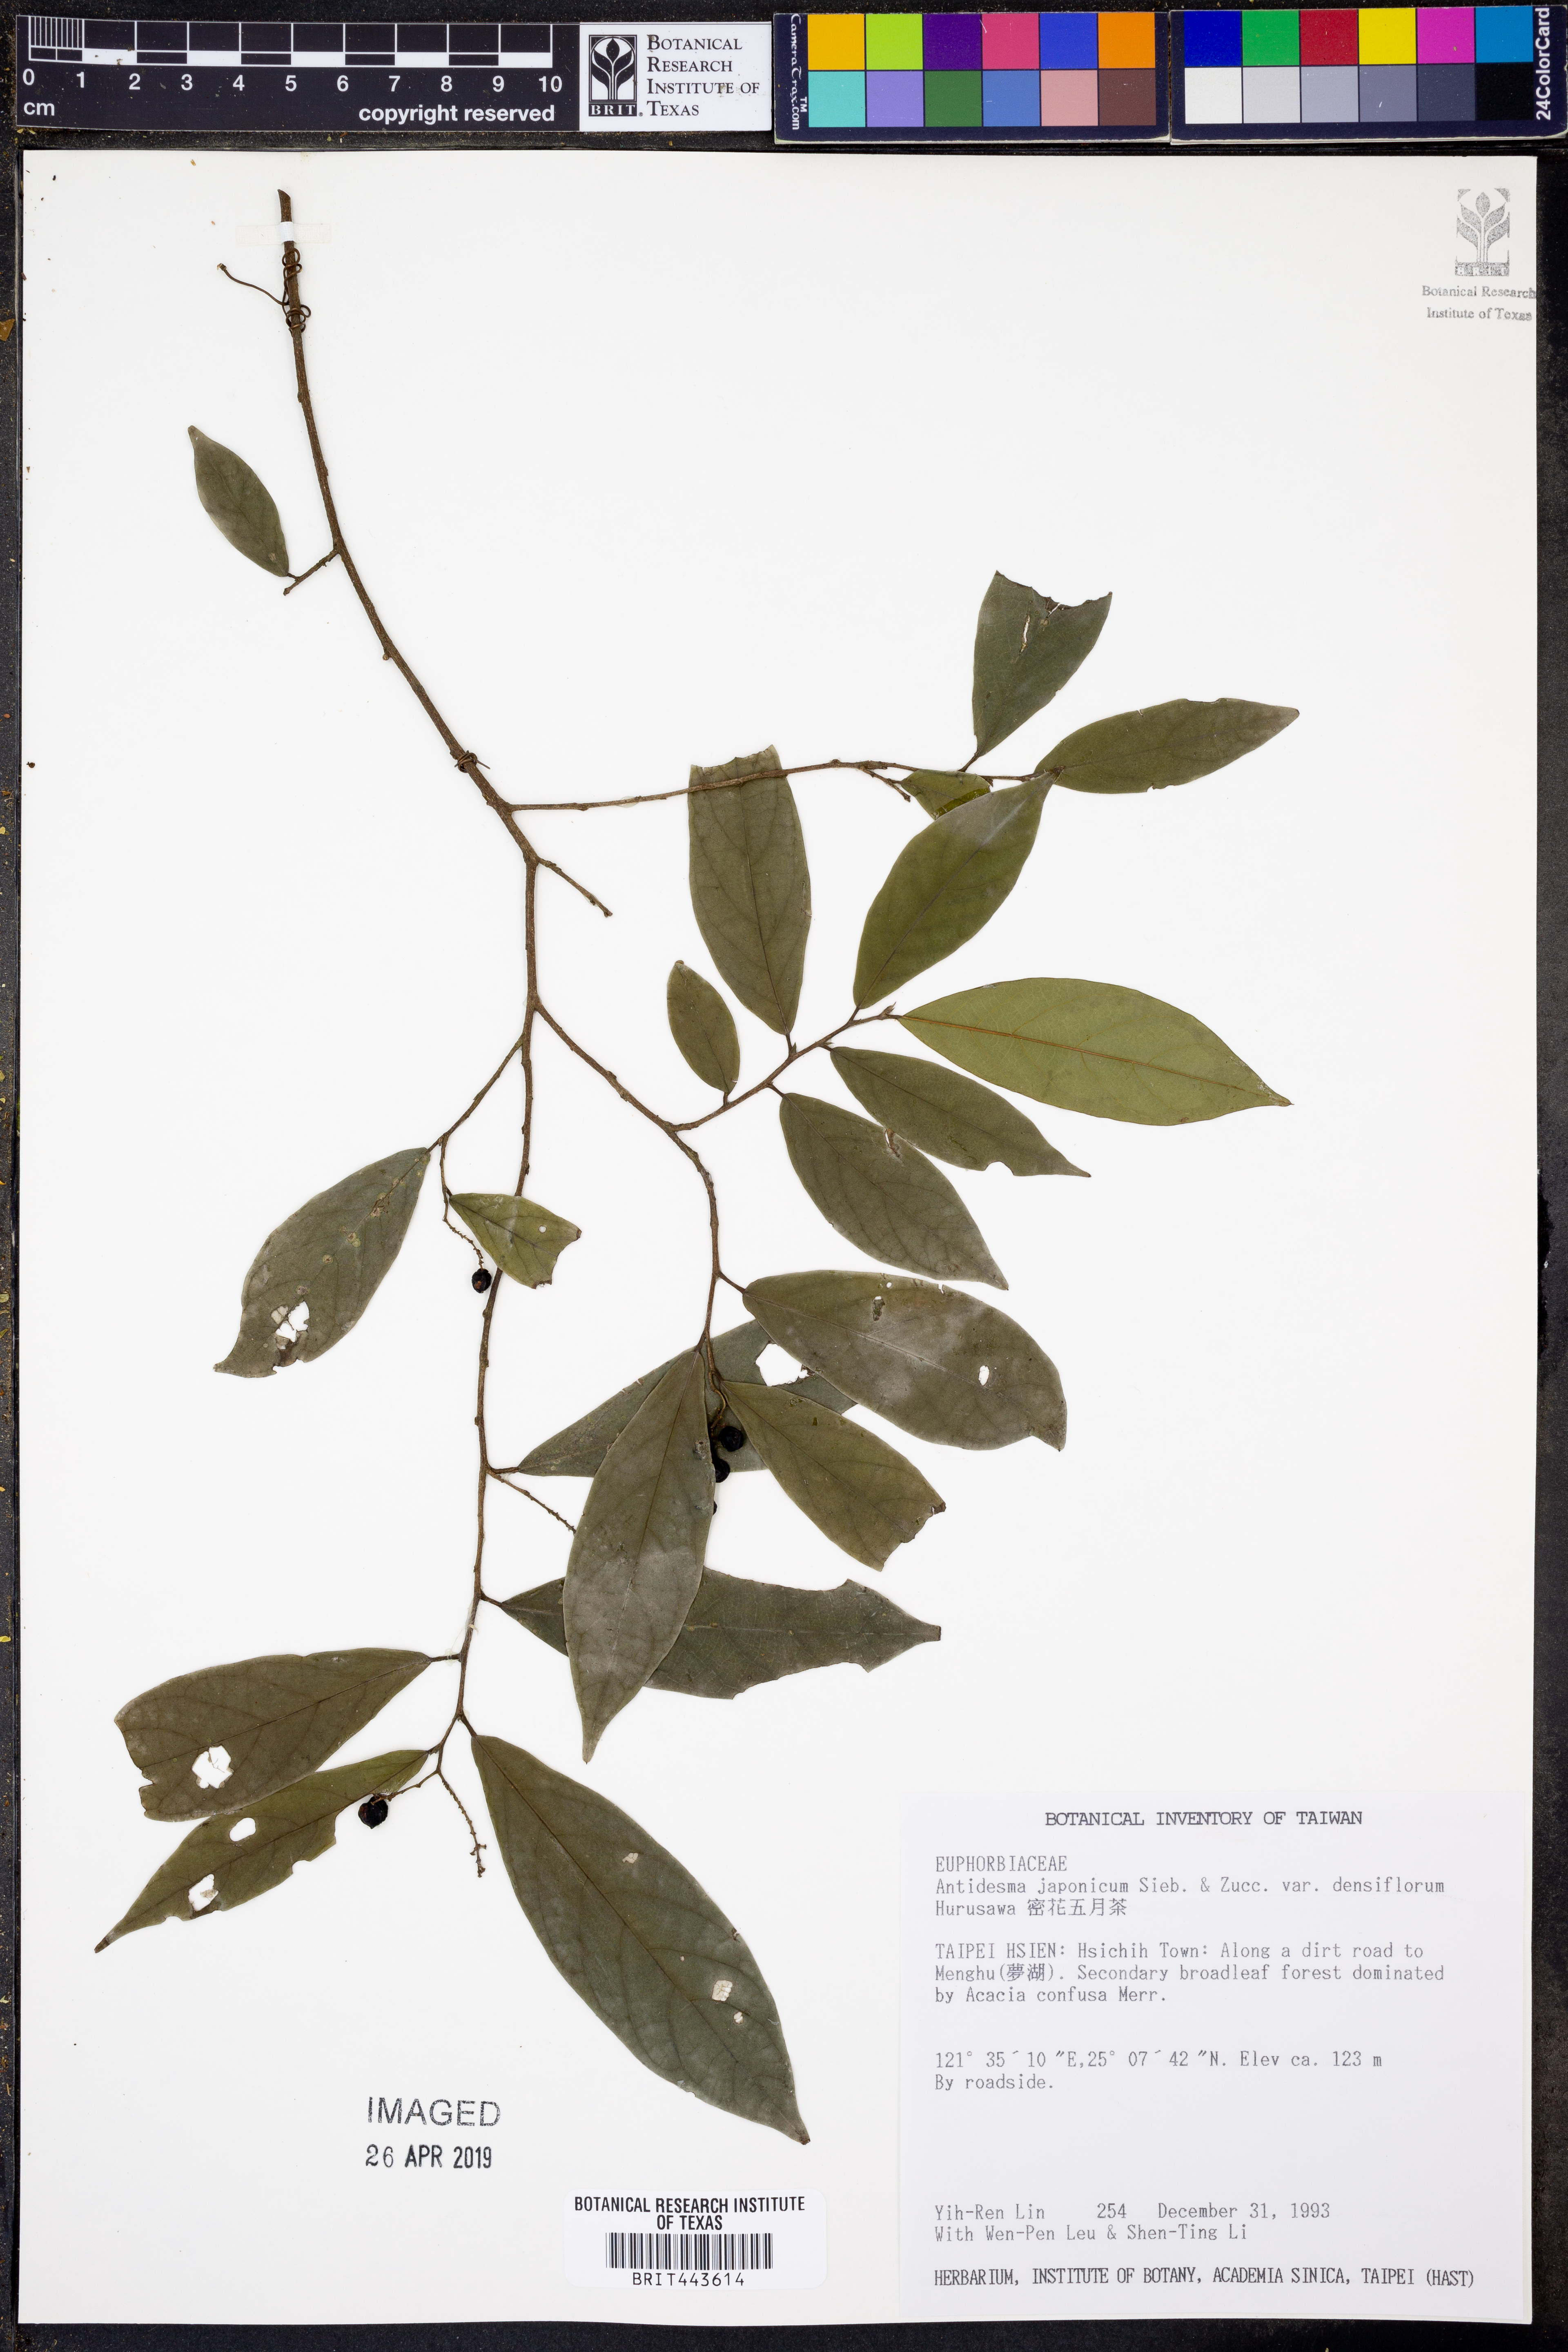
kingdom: Plantae
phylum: Tracheophyta
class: Magnoliopsida
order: Malpighiales
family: Phyllanthaceae
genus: Antidesma
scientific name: Antidesma japonicum
